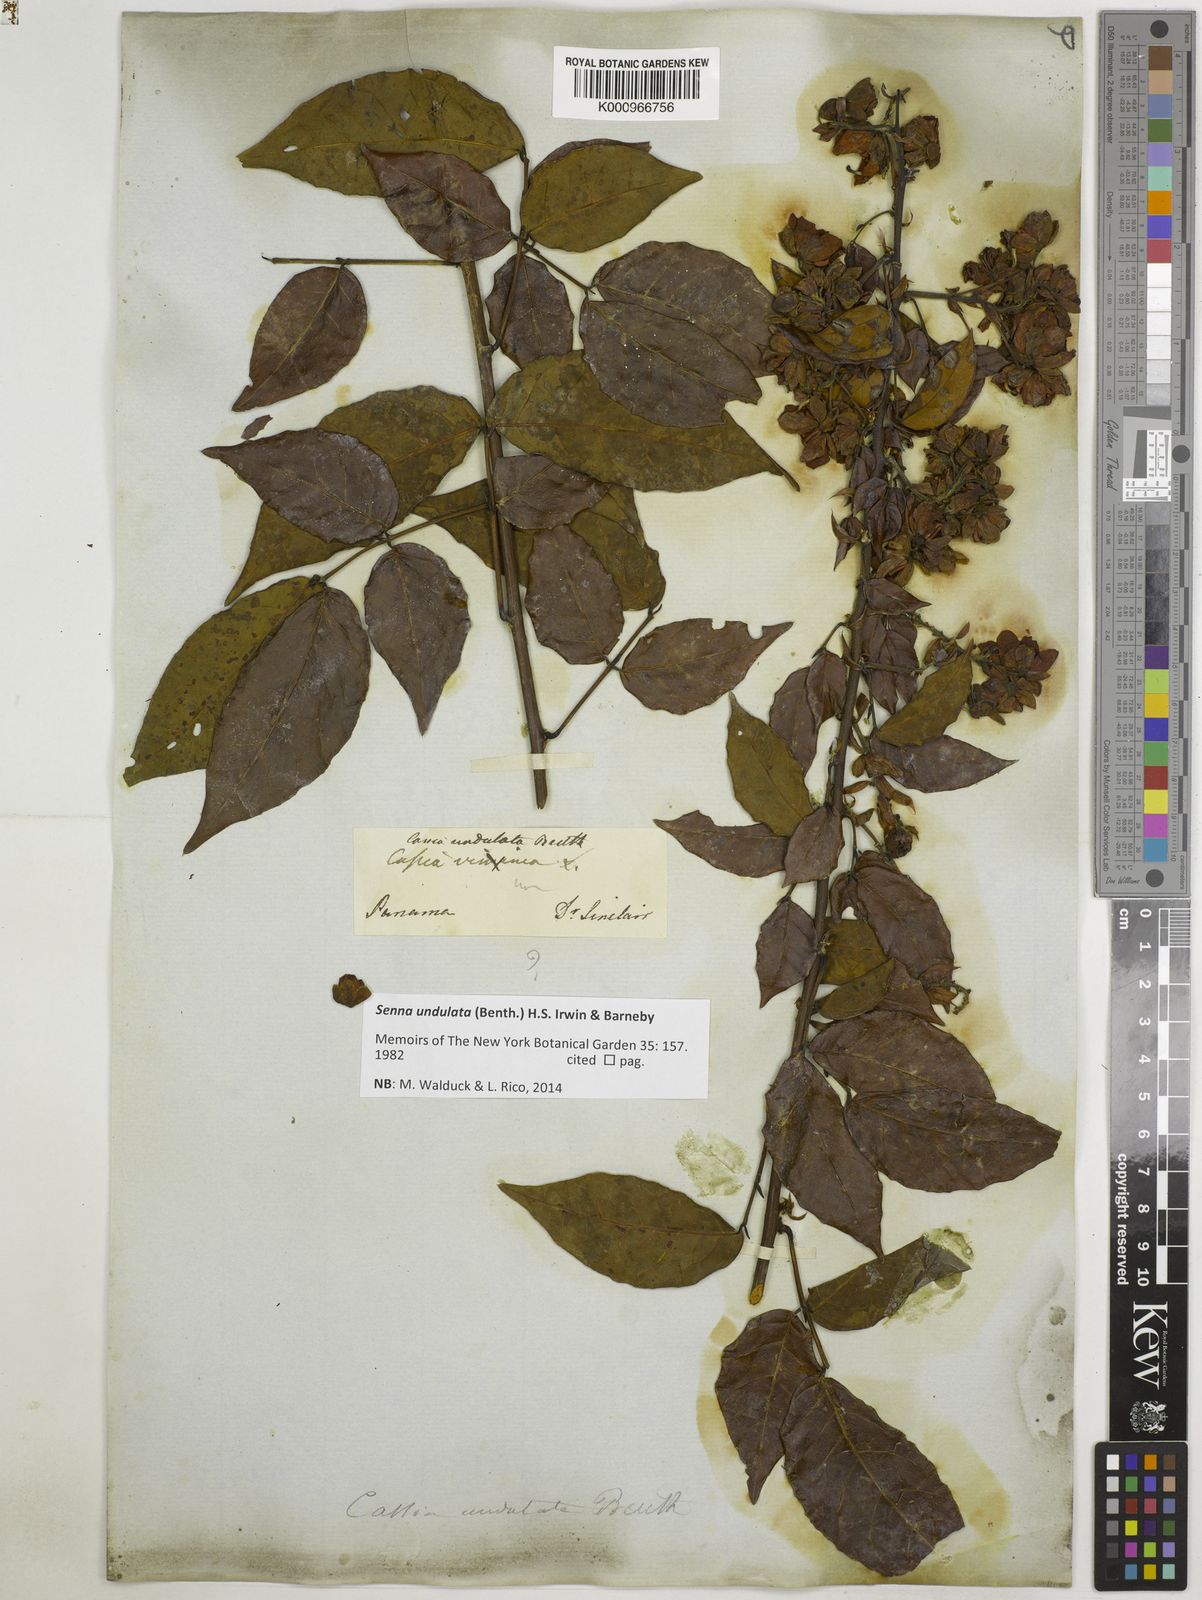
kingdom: Plantae
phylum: Tracheophyta
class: Magnoliopsida
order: Fabales
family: Fabaceae
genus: Senna
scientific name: Senna undulata
